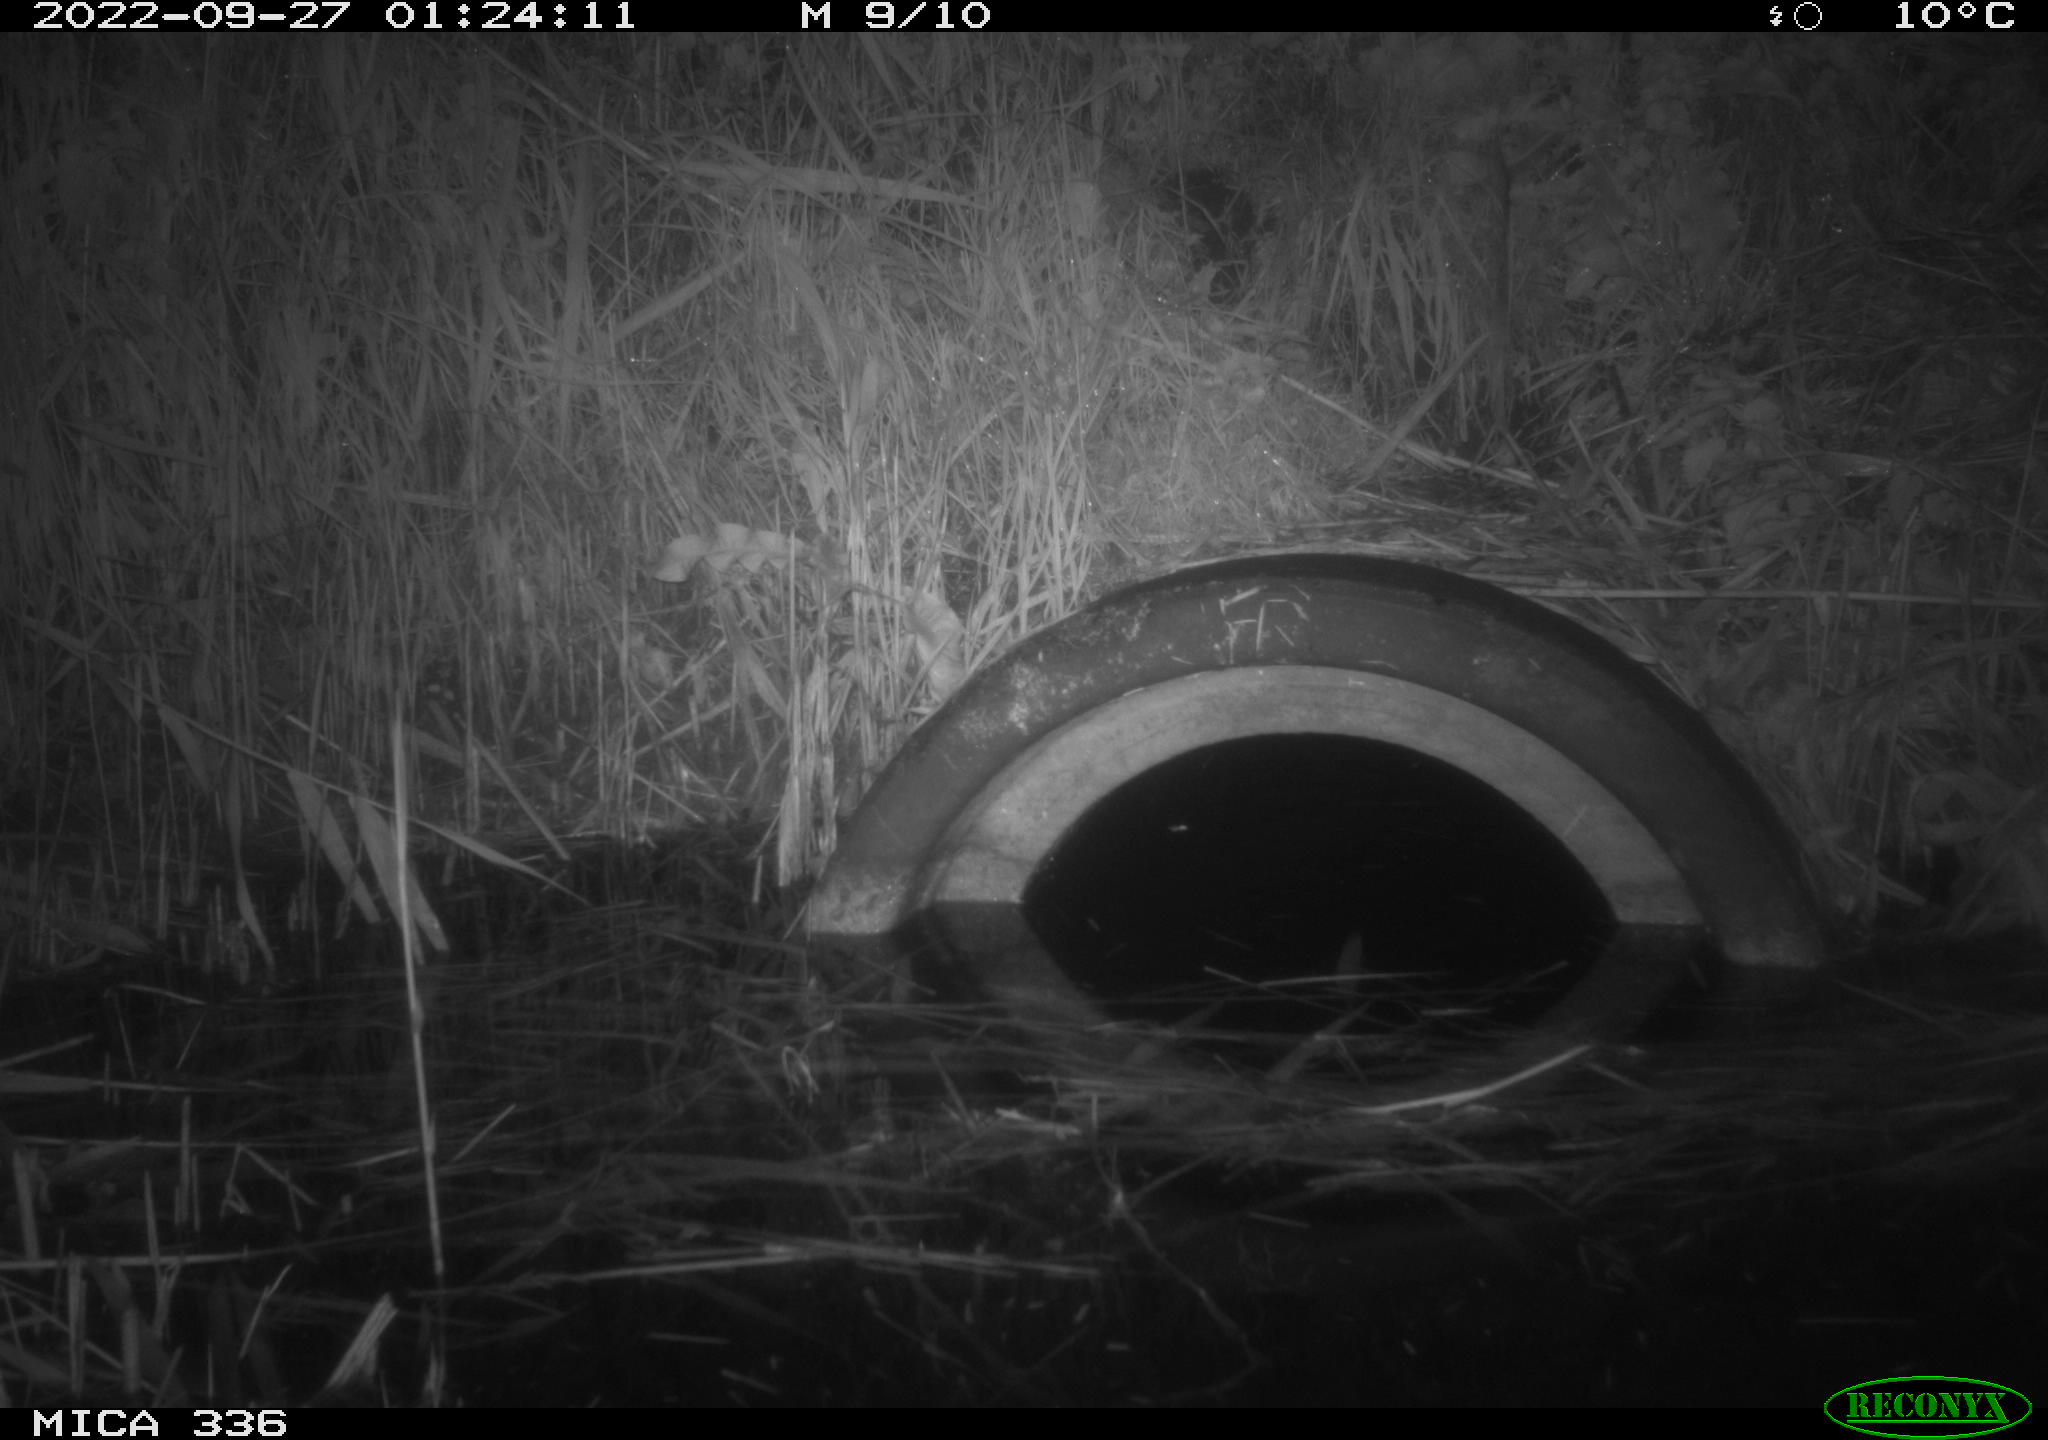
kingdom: Animalia
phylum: Chordata
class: Mammalia
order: Rodentia
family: Muridae
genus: Rattus
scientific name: Rattus norvegicus
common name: Brown rat
